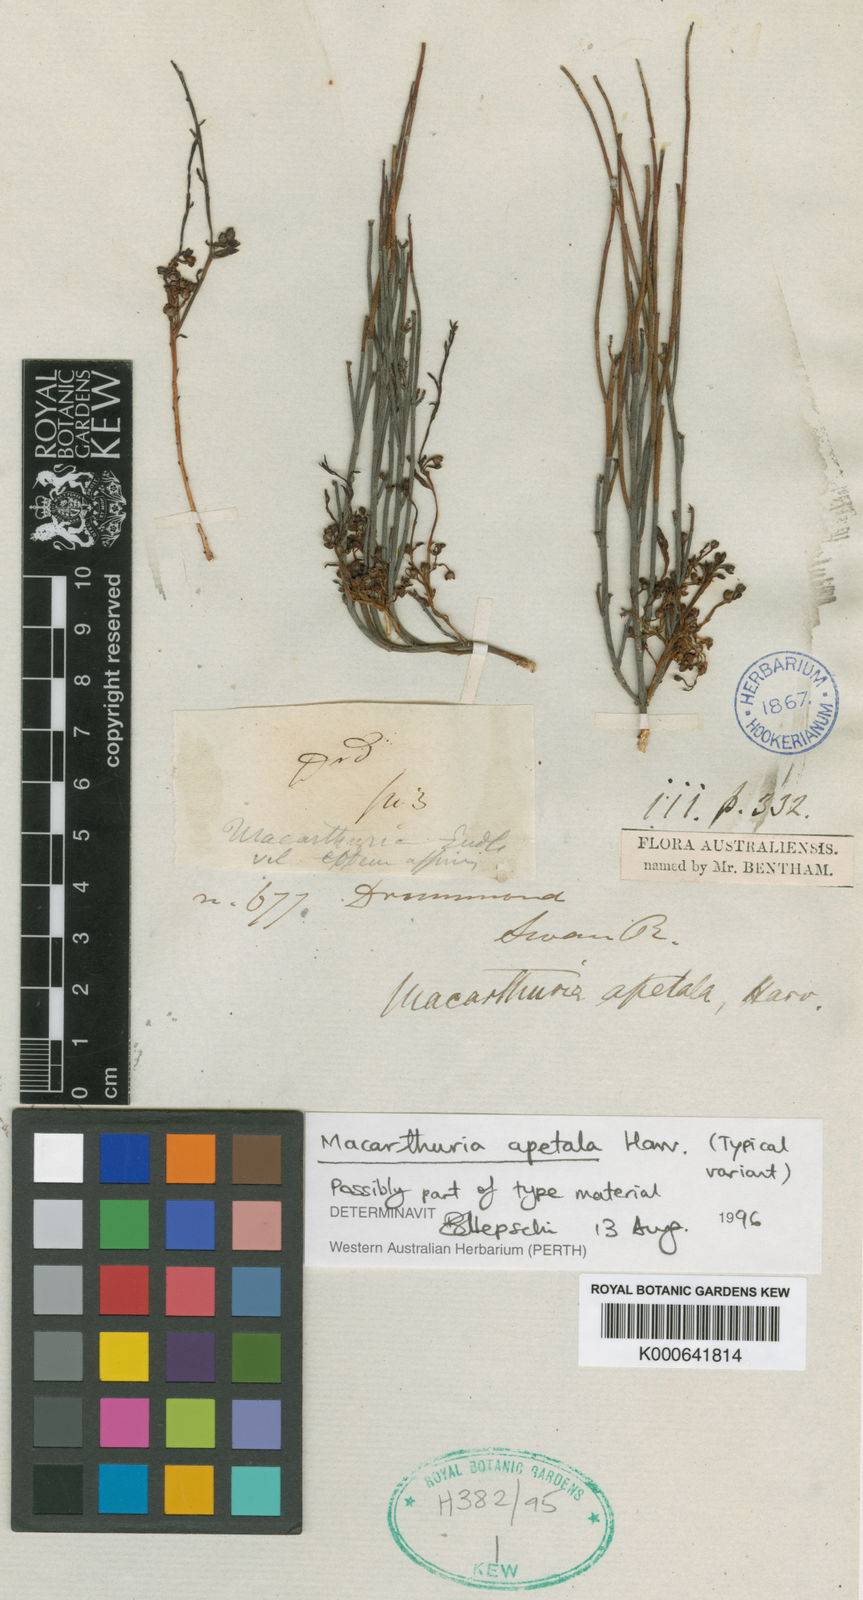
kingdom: Plantae
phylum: Tracheophyta
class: Magnoliopsida
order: Caryophyllales
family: Macarthuriaceae
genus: Macarthuria
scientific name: Macarthuria apetala
